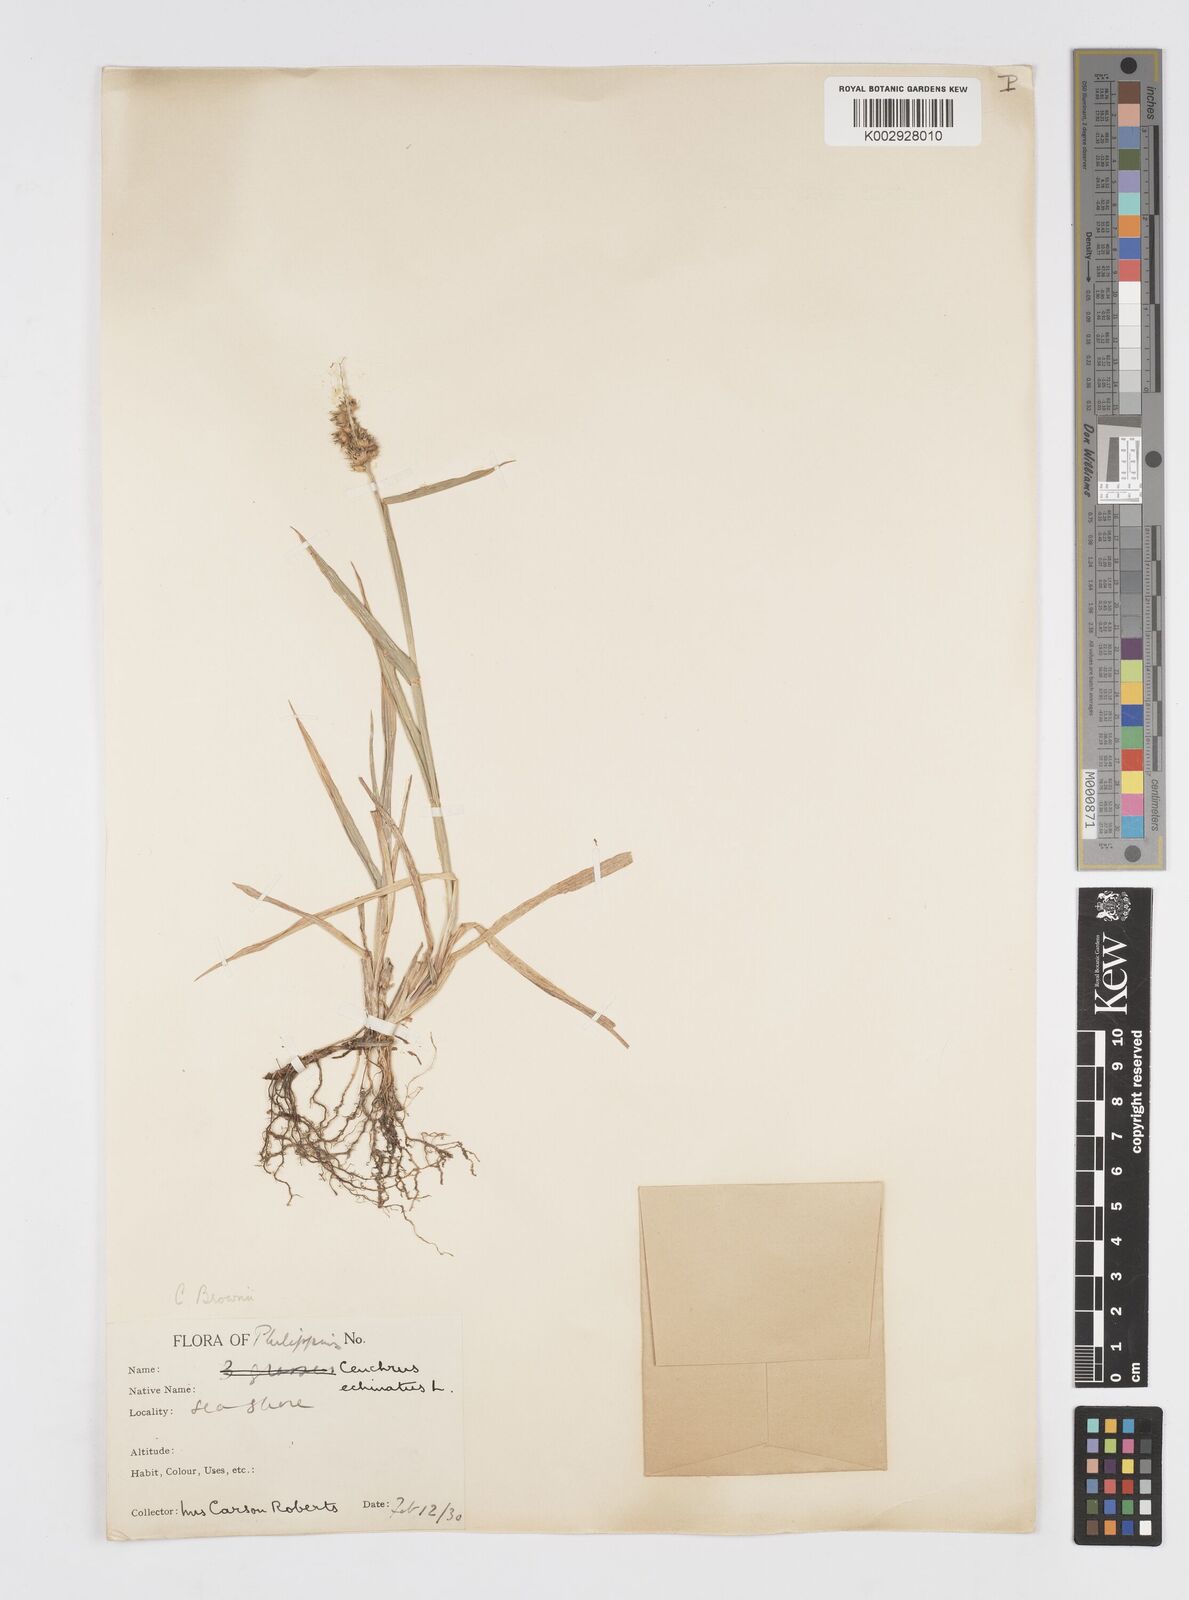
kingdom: Plantae
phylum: Tracheophyta
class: Liliopsida
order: Poales
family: Poaceae
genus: Cenchrus
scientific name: Cenchrus brownii
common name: Slim-bristle sandbur
